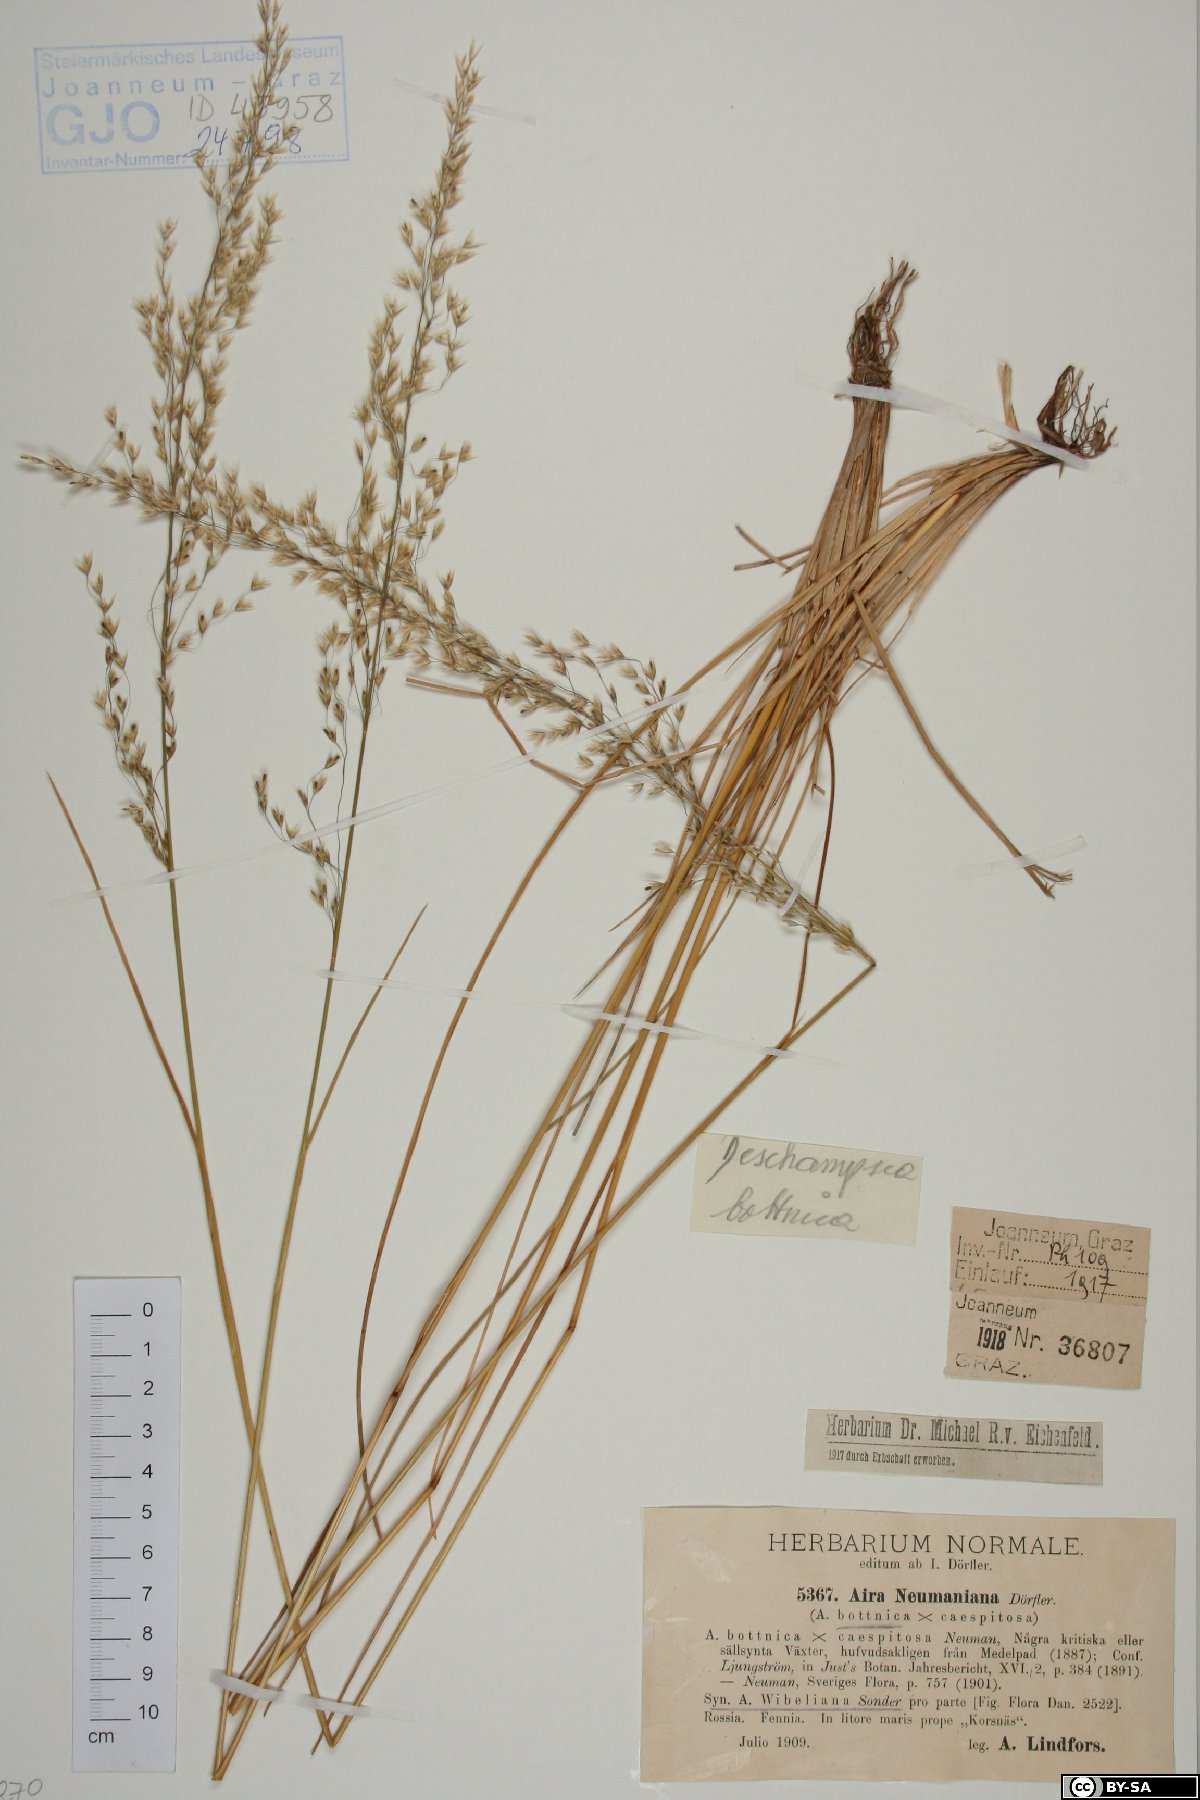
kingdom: Plantae
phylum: Tracheophyta
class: Liliopsida
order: Poales
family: Poaceae
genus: Deschampsia
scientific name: Deschampsia cespitosa
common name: Tufted hair-grass
